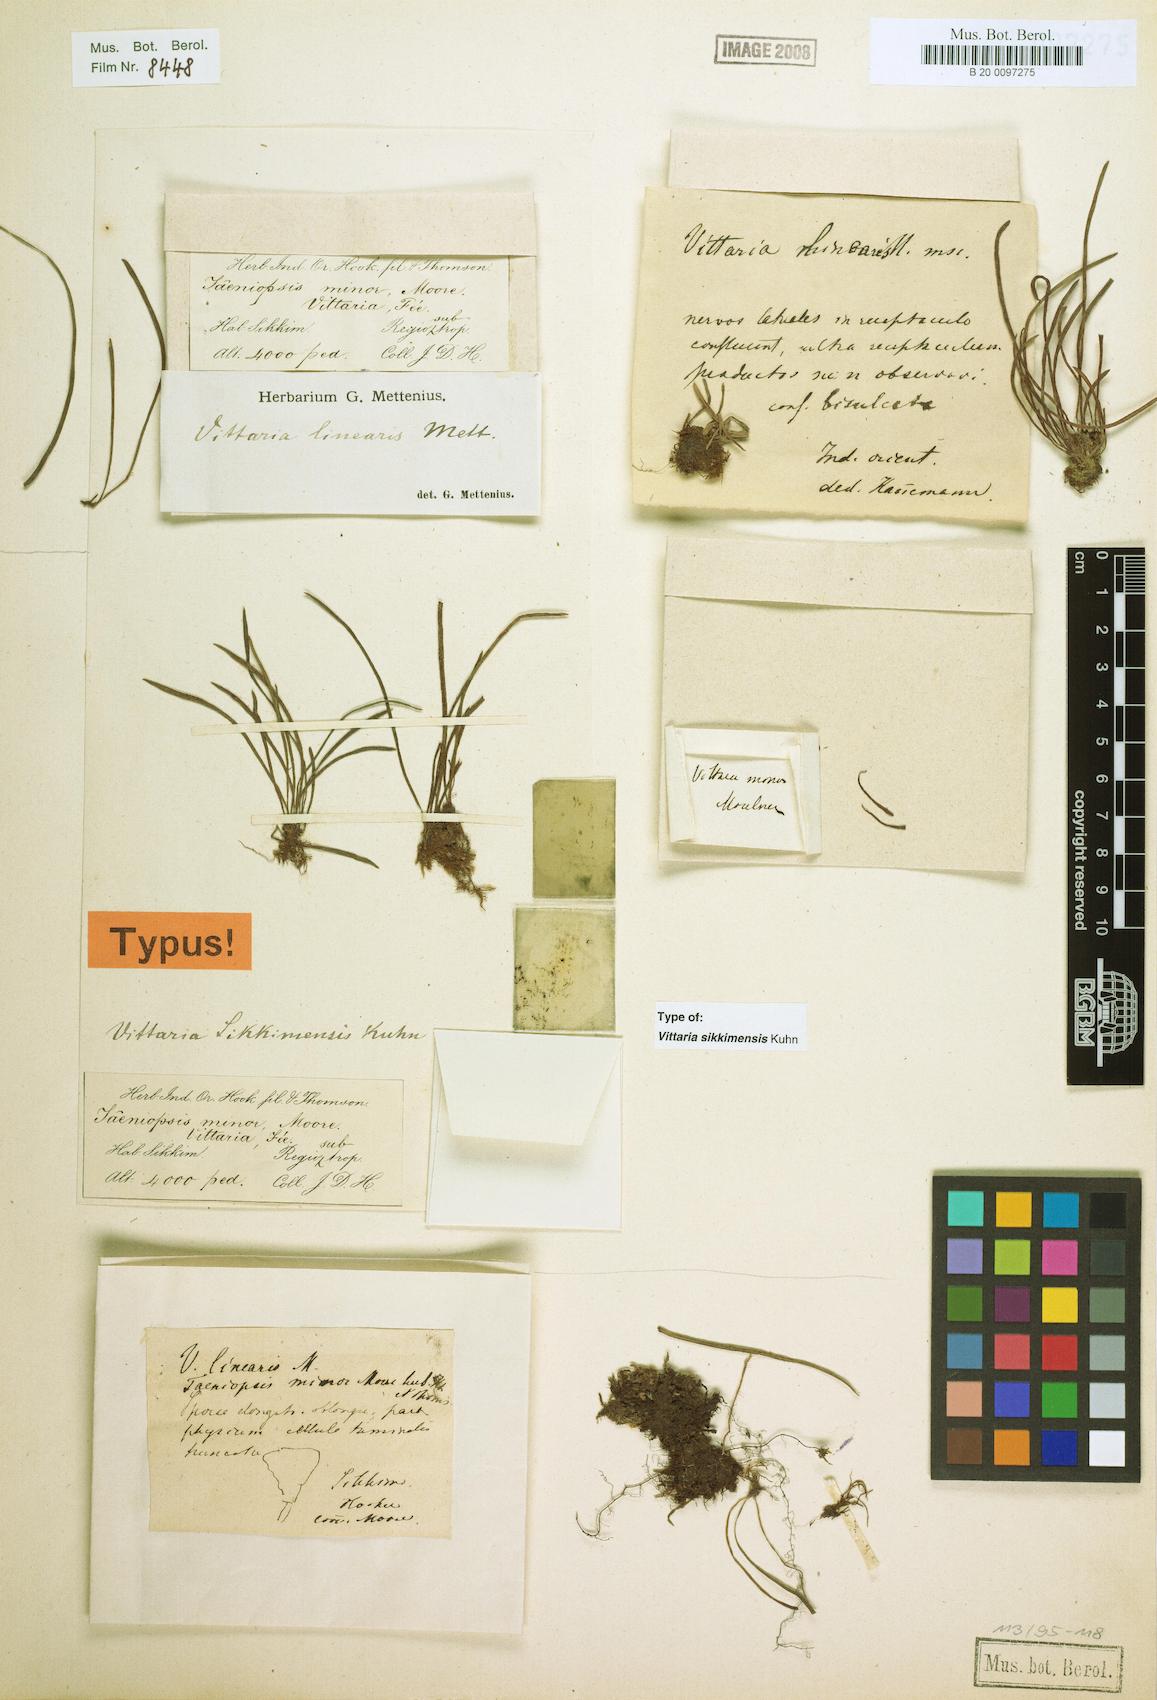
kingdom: Plantae
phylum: Tracheophyta
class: Polypodiopsida
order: Polypodiales
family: Pteridaceae
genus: Haplopteris
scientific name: Haplopteris sikkimensis
